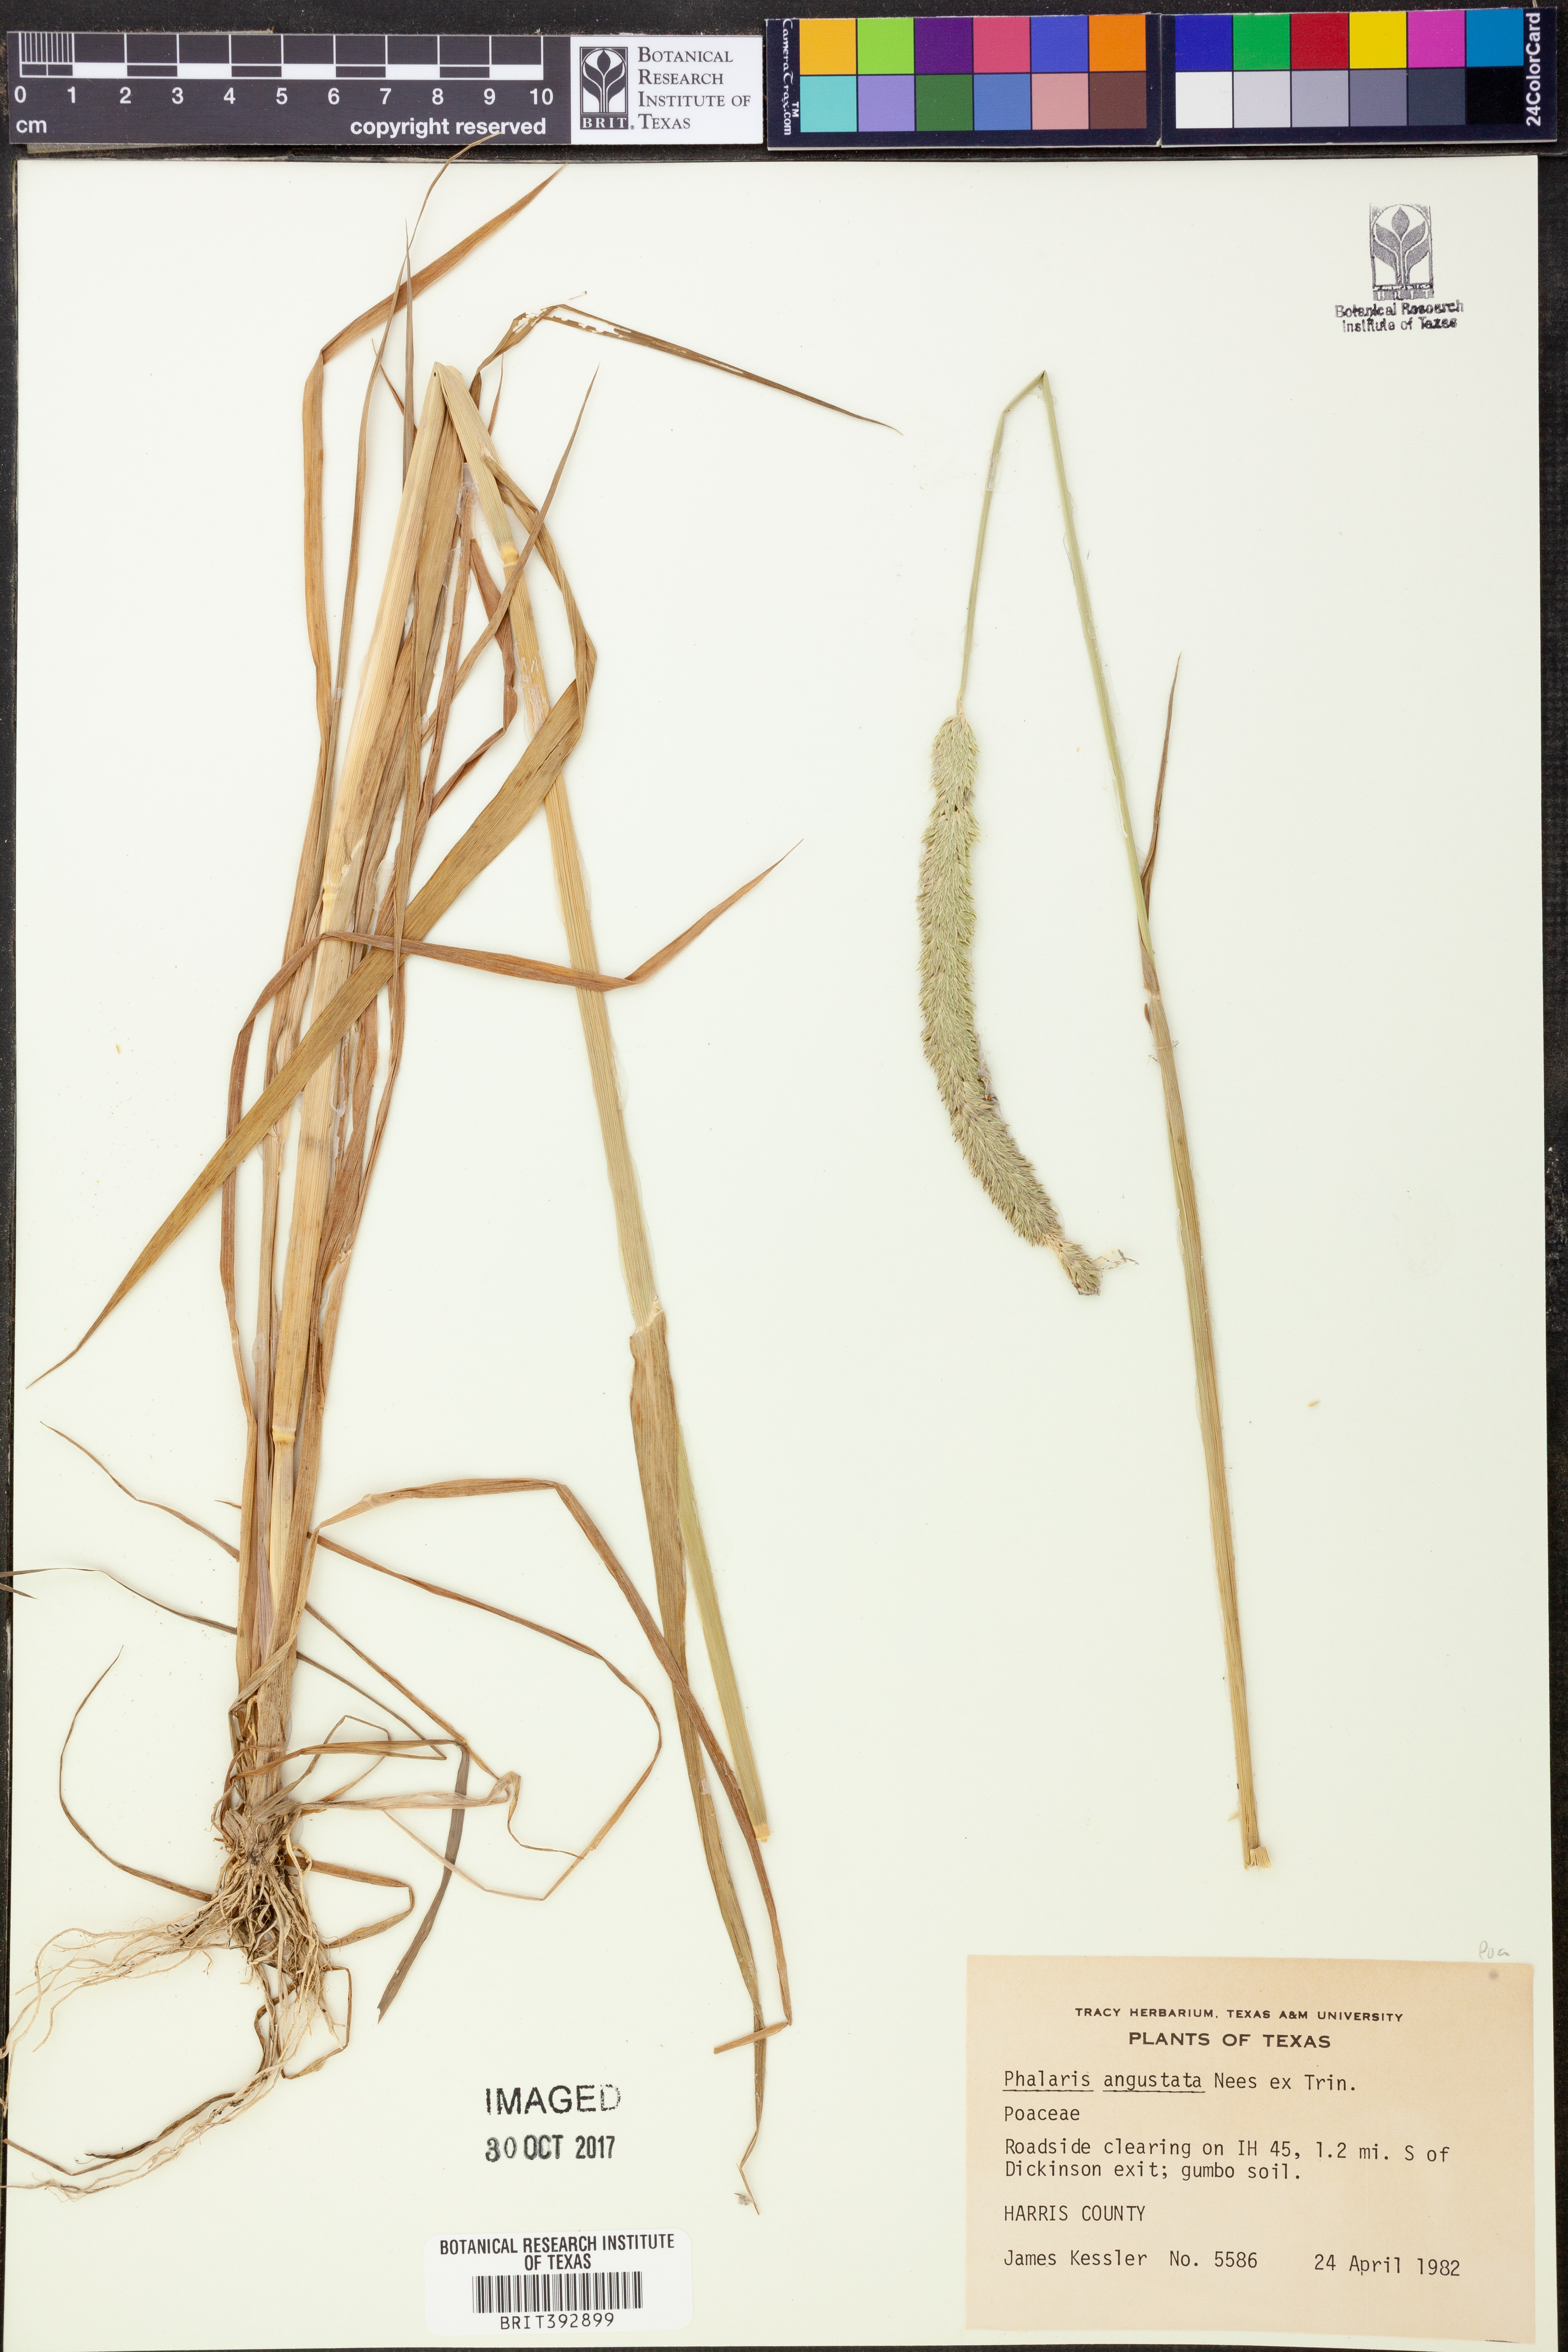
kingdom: Plantae
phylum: Tracheophyta
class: Liliopsida
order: Poales
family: Poaceae
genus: Phalaris
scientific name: Phalaris angusta
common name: Narrow canary grass
